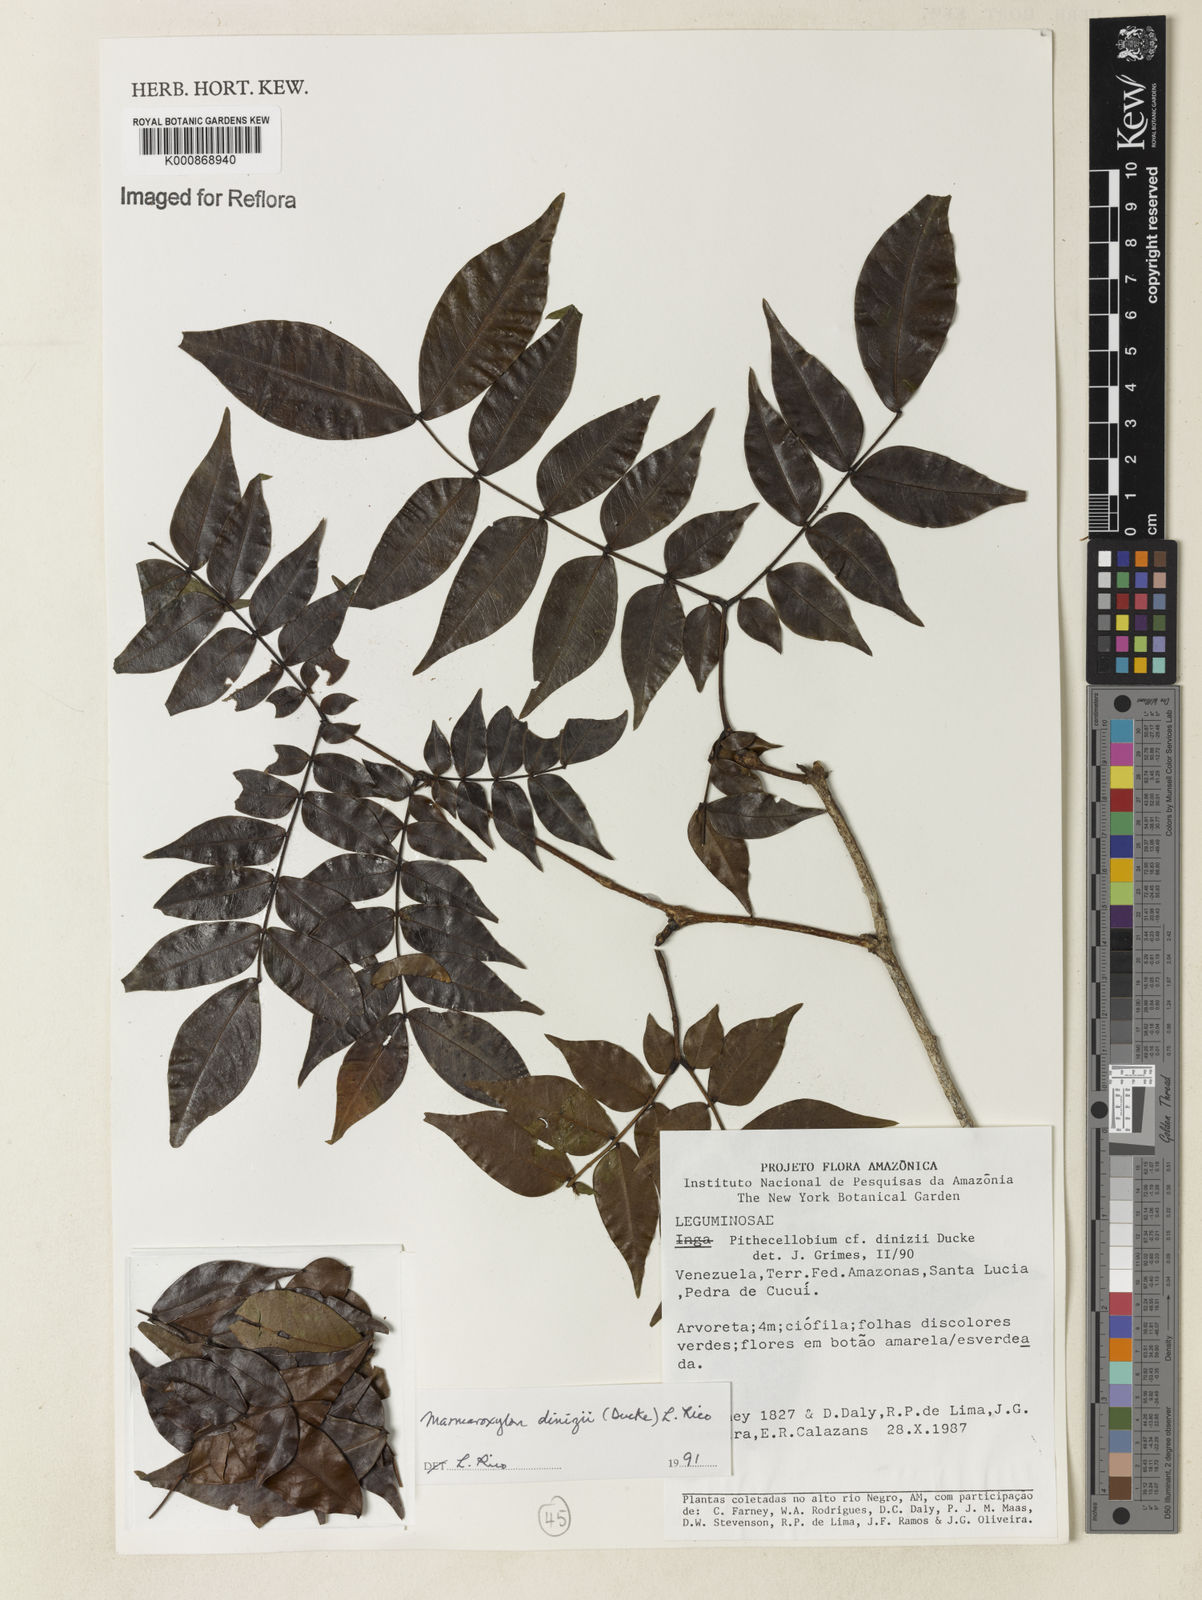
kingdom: Plantae
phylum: Tracheophyta
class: Magnoliopsida
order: Fabales
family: Fabaceae
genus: Zygia
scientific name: Zygia dinizii
